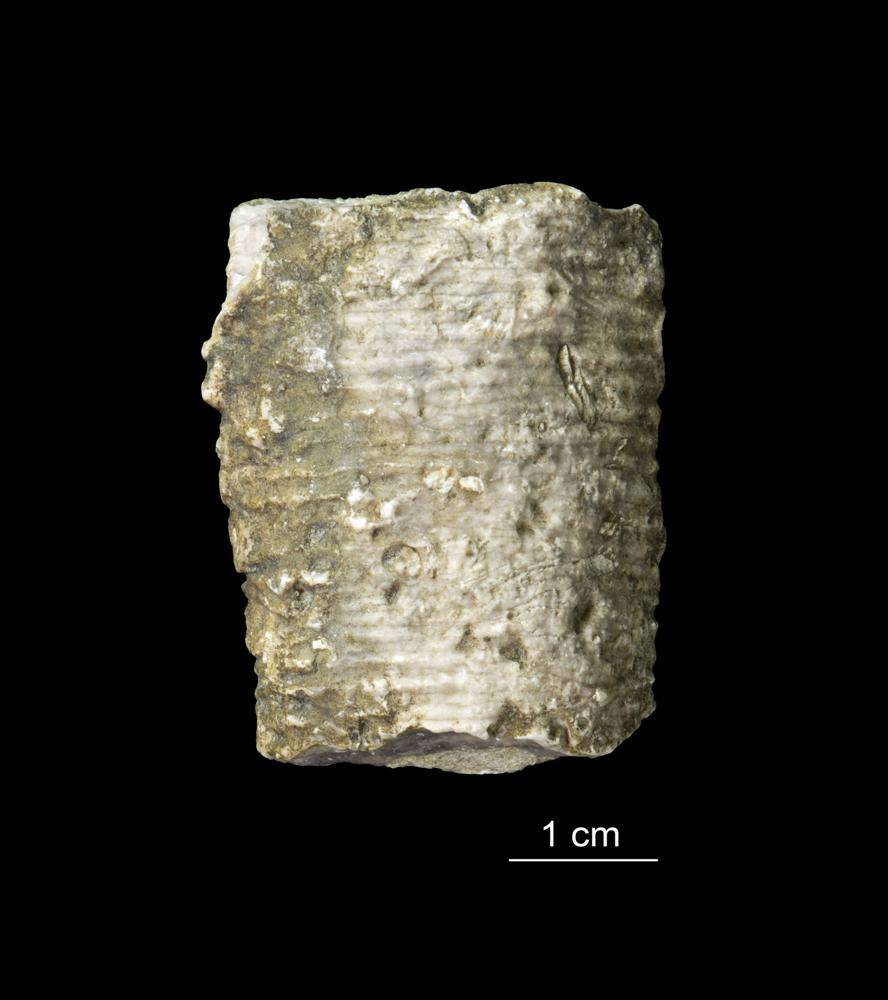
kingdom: Animalia
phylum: Echinodermata
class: Crinoidea
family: Crotalocrinitidae
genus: Crotalocrinus
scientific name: Crotalocrinus
